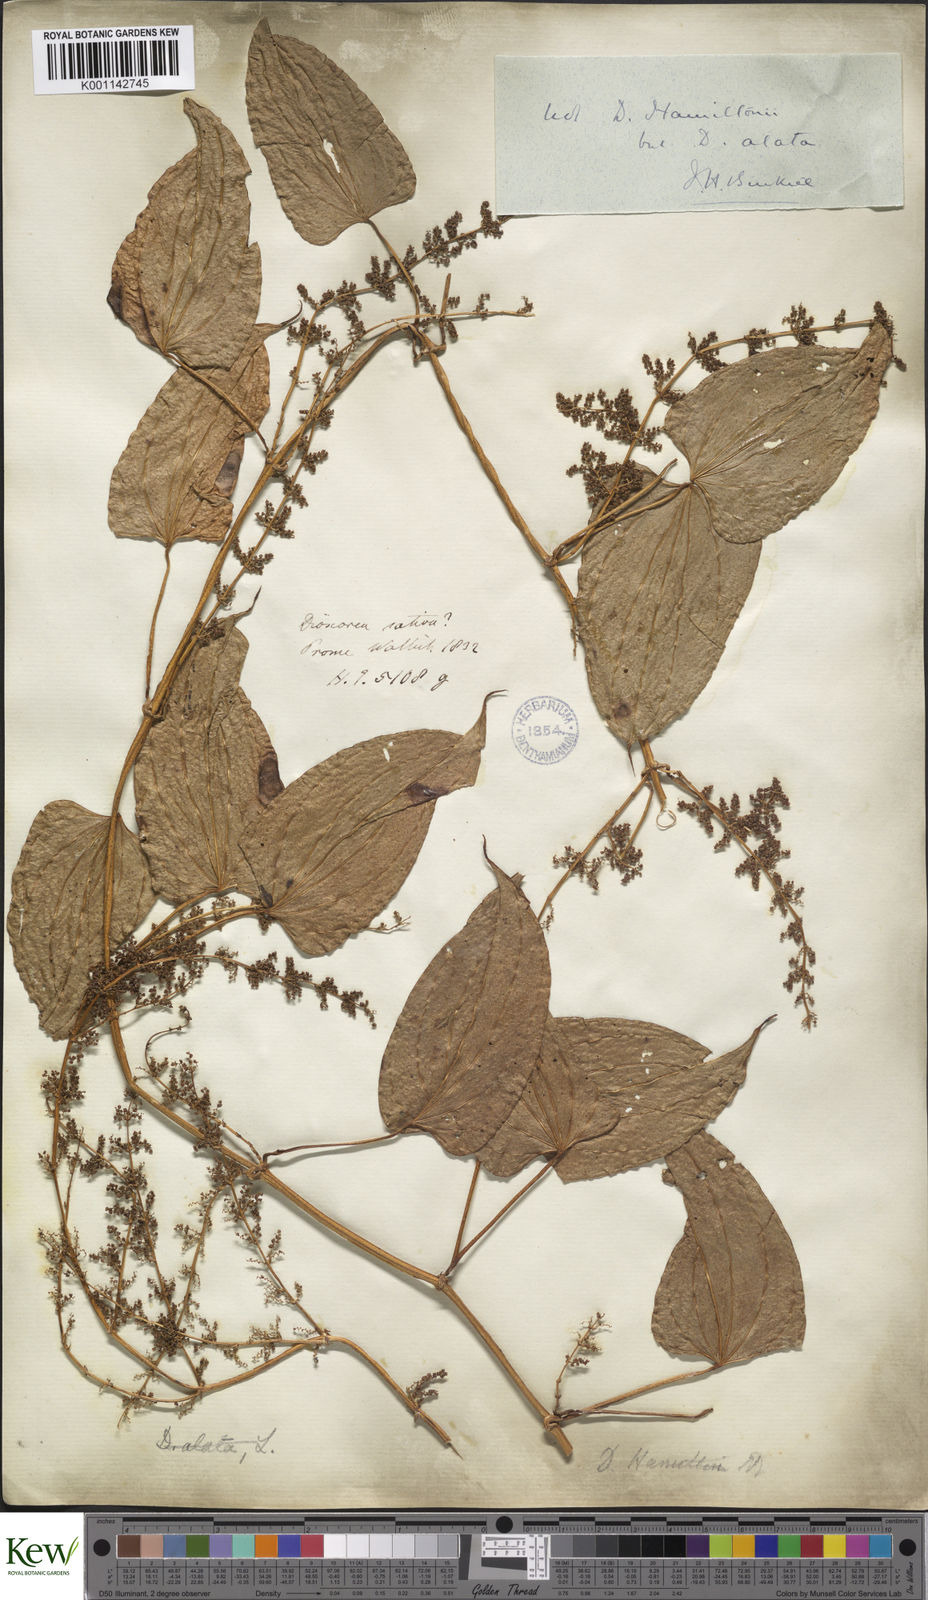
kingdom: Plantae
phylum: Tracheophyta
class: Liliopsida
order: Dioscoreales
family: Dioscoreaceae
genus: Dioscorea
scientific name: Dioscorea alata
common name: Water yam
